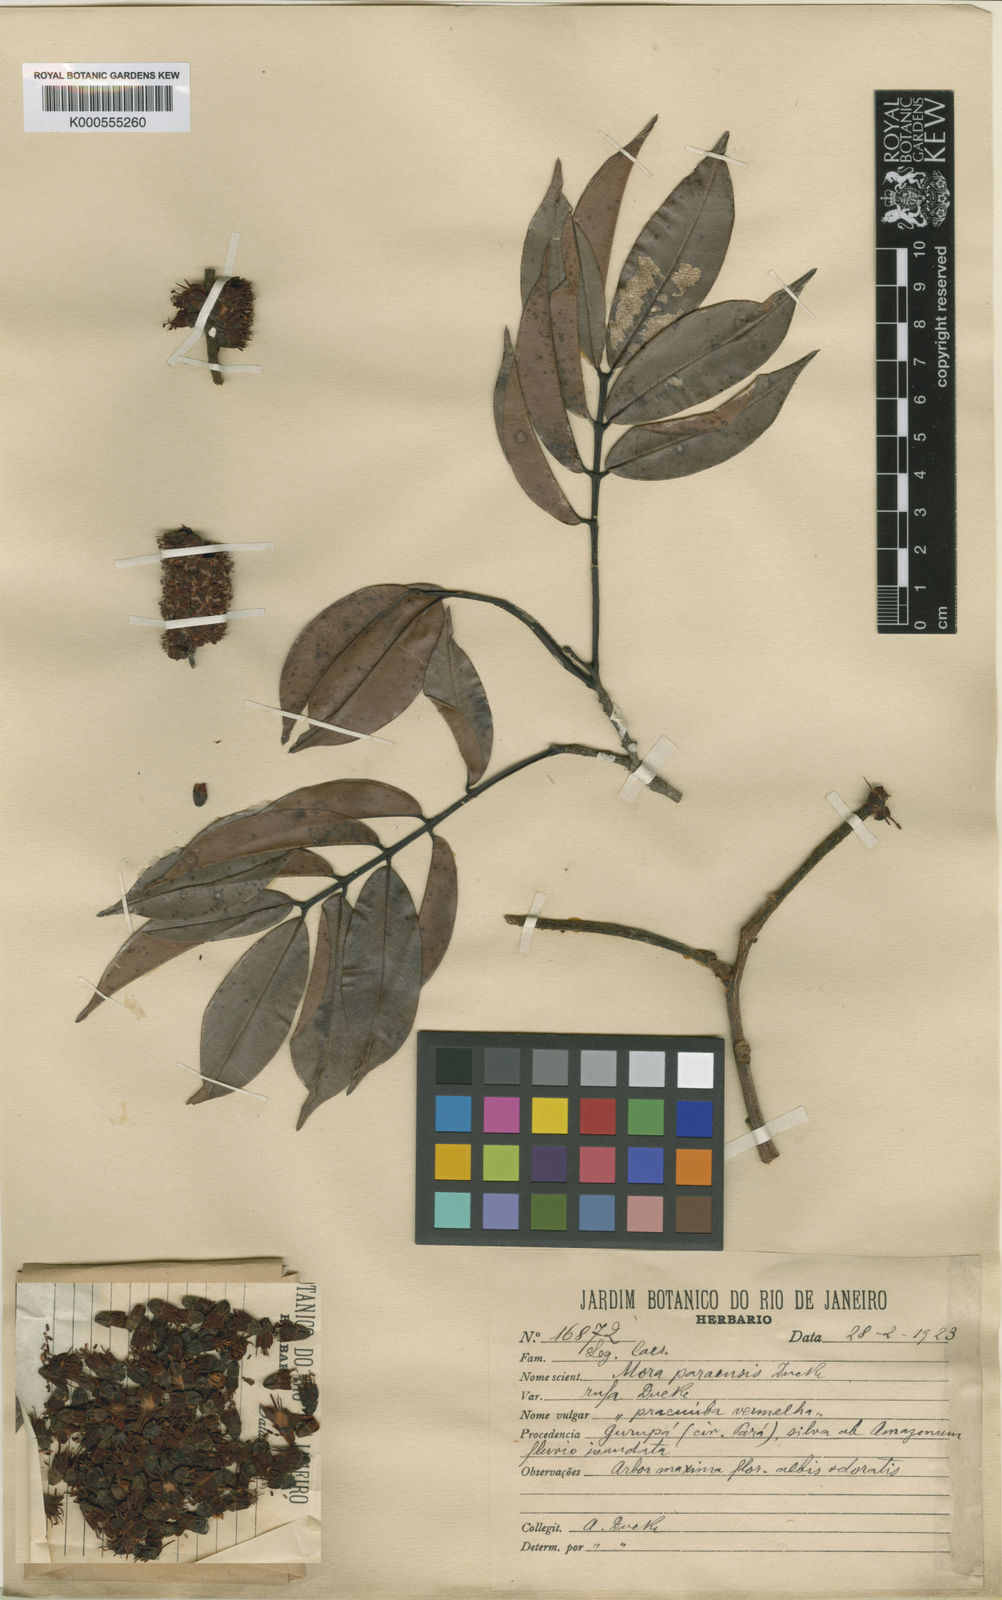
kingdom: Plantae
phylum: Tracheophyta
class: Magnoliopsida
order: Fabales
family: Fabaceae
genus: Mora
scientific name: Mora paraensis
